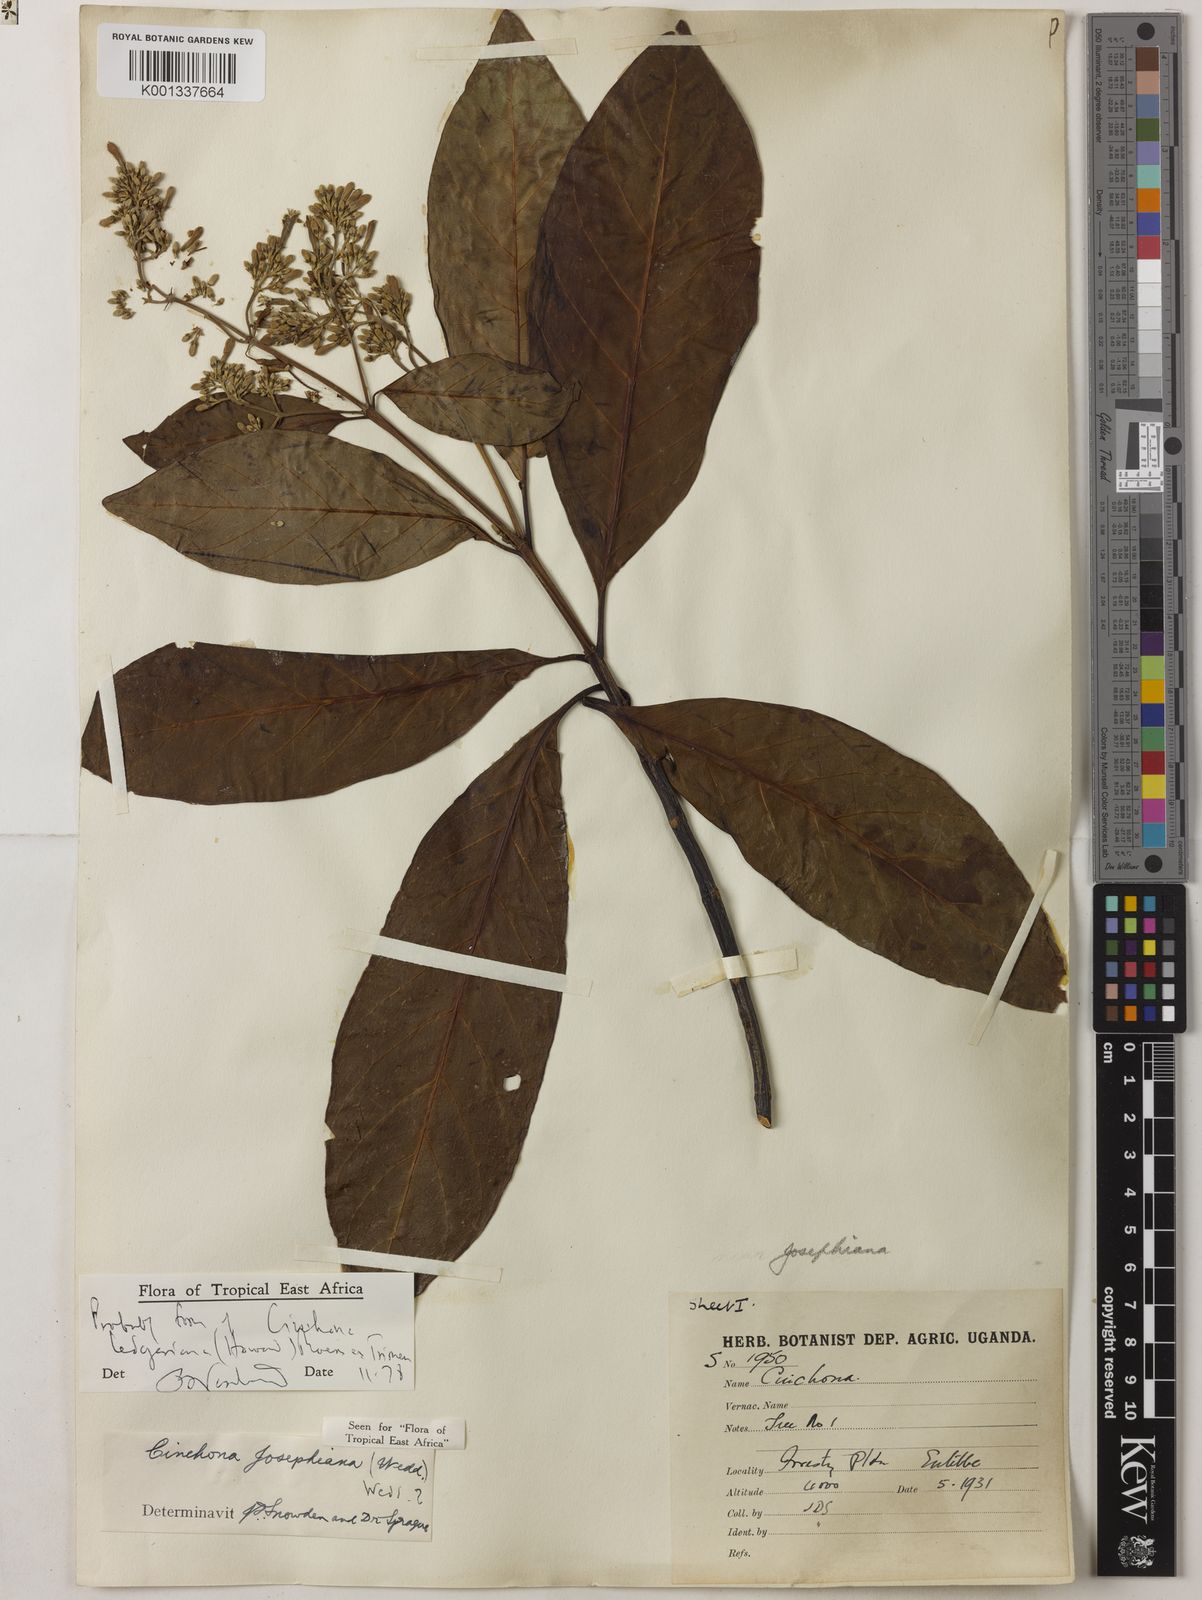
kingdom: Plantae
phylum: Tracheophyta
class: Magnoliopsida
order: Gentianales
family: Rubiaceae
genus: Cinchona
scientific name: Cinchona calisaya
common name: Ledgerbark
